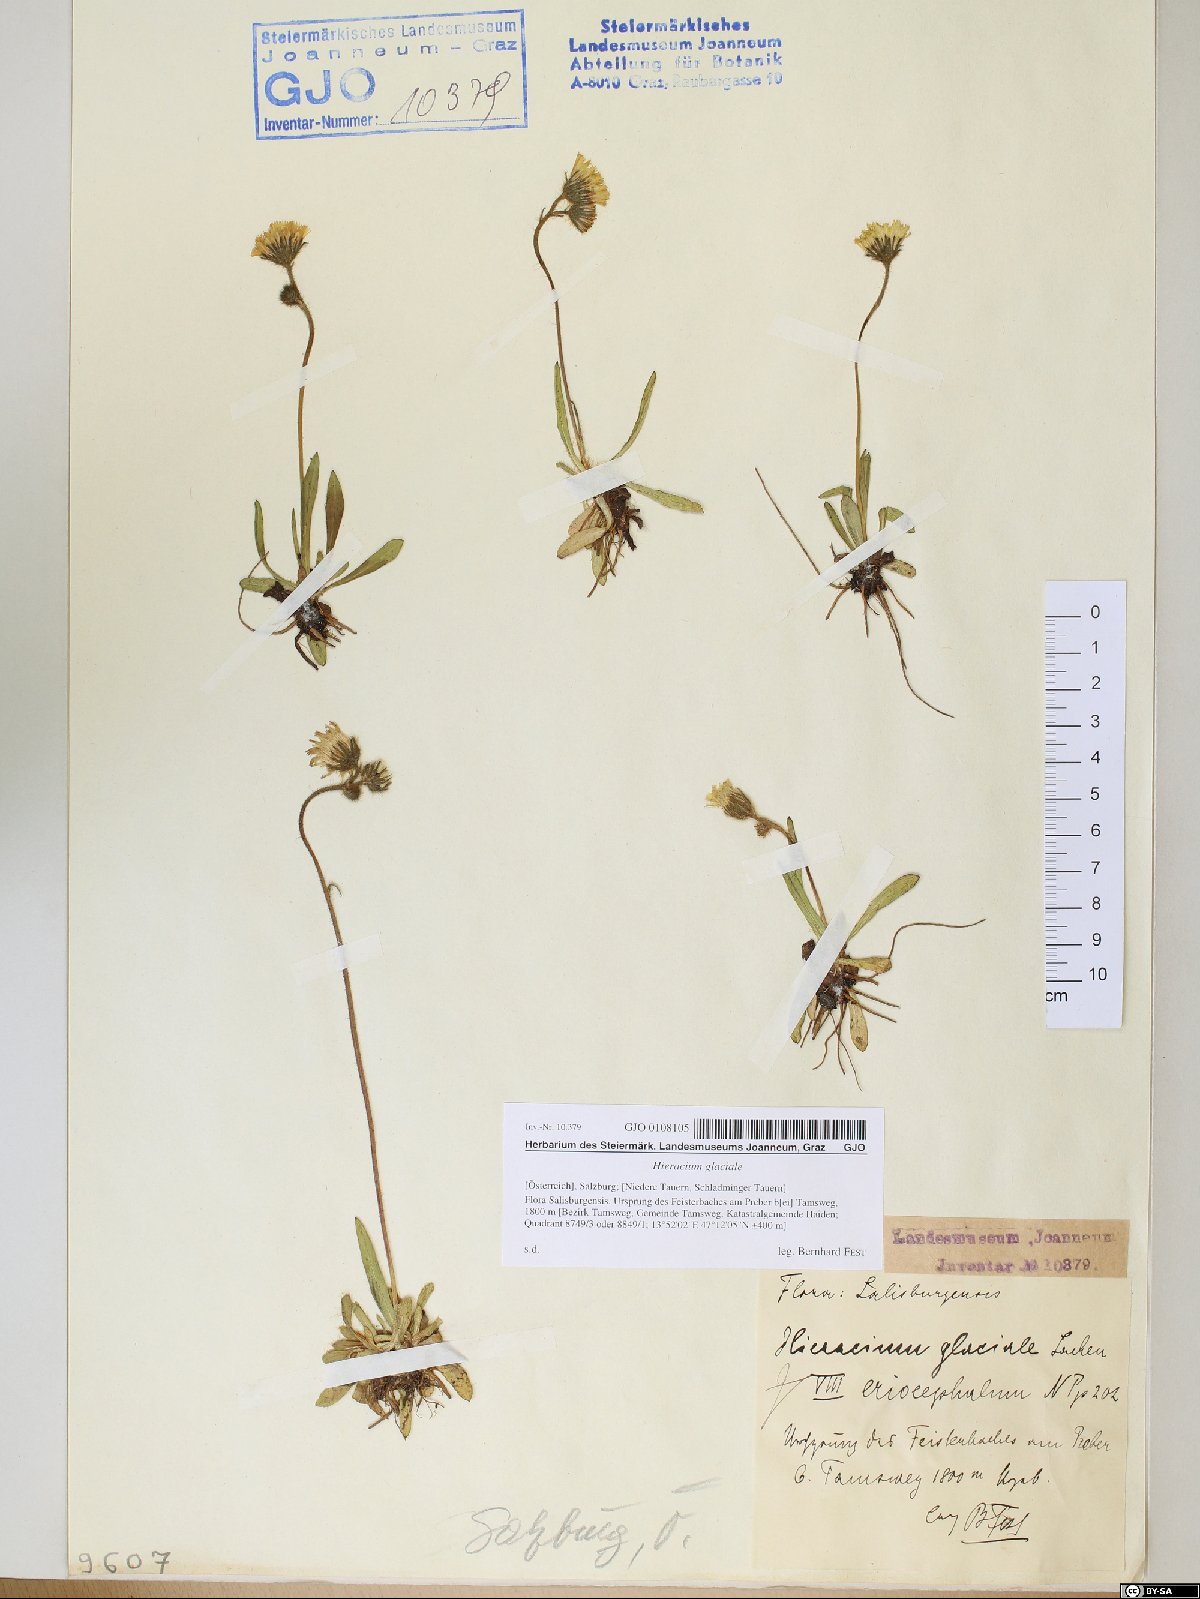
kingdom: Plantae
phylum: Tracheophyta
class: Magnoliopsida
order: Asterales
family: Asteraceae
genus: Pilosella
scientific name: Pilosella glacialis
